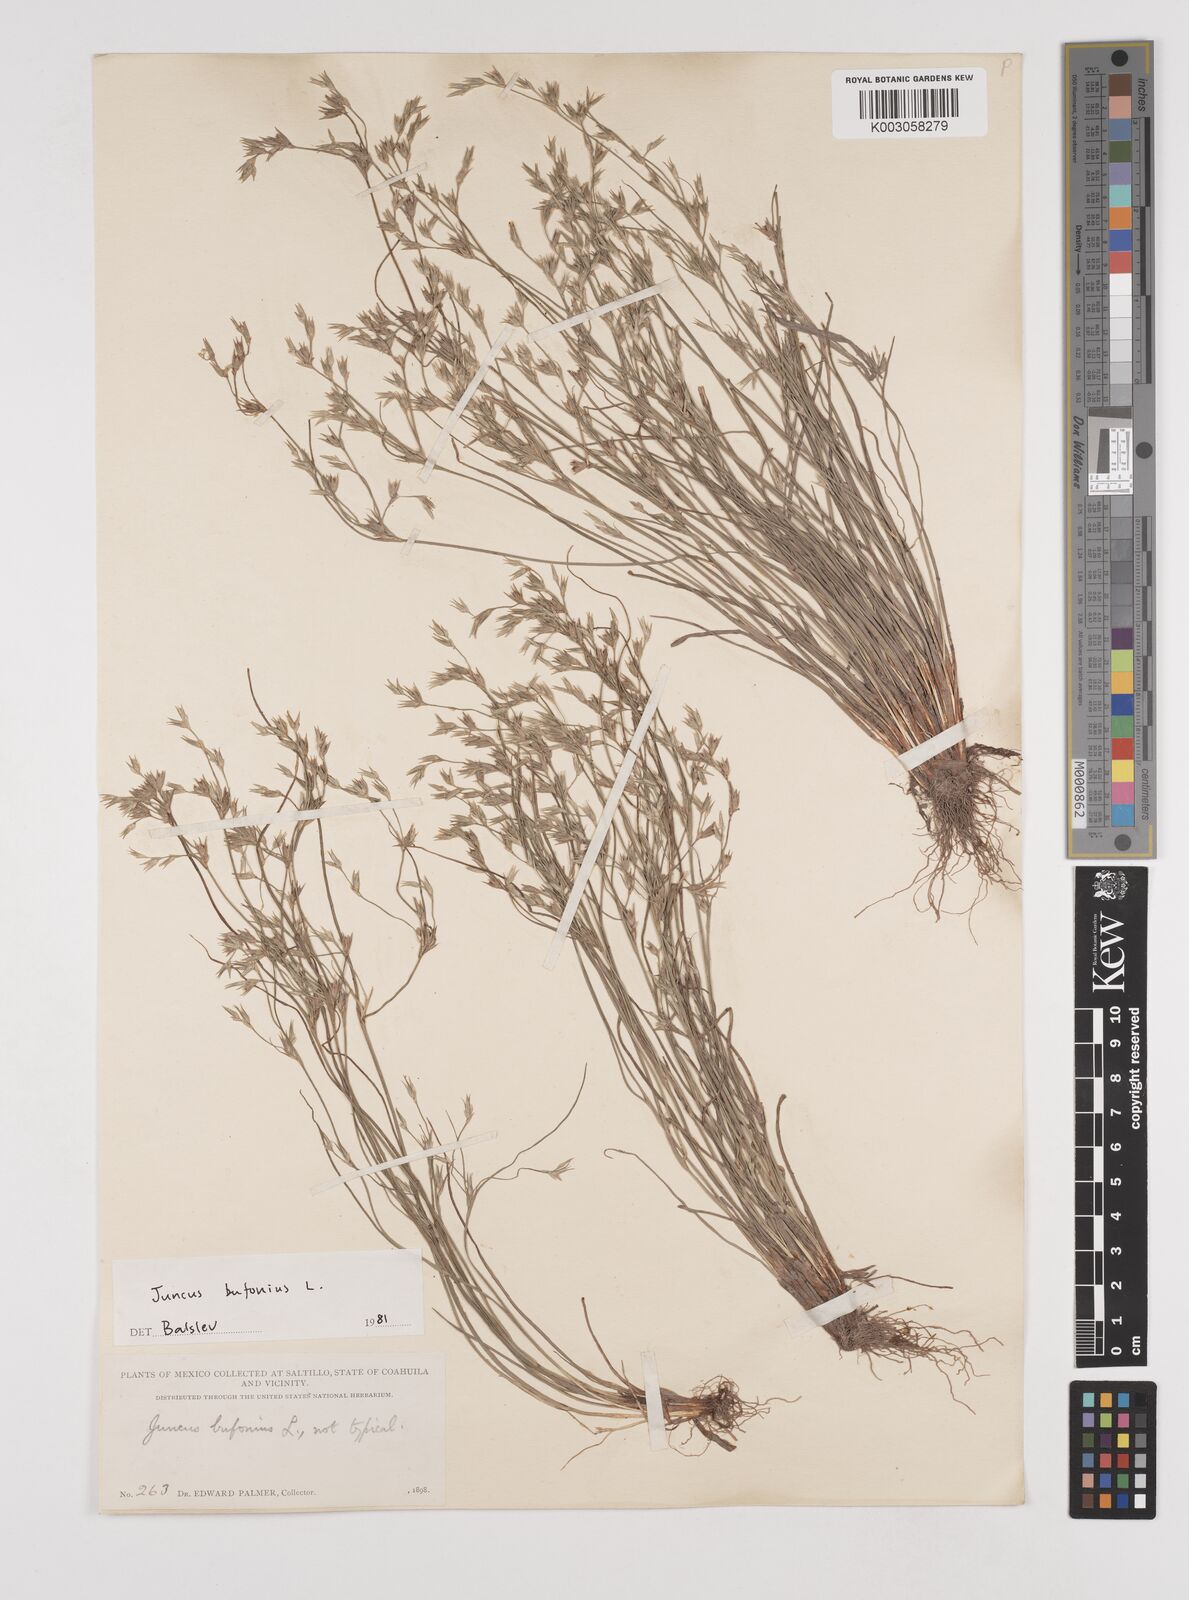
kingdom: Plantae
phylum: Tracheophyta
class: Liliopsida
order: Poales
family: Juncaceae
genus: Juncus
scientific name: Juncus bufonius
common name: Toad rush
